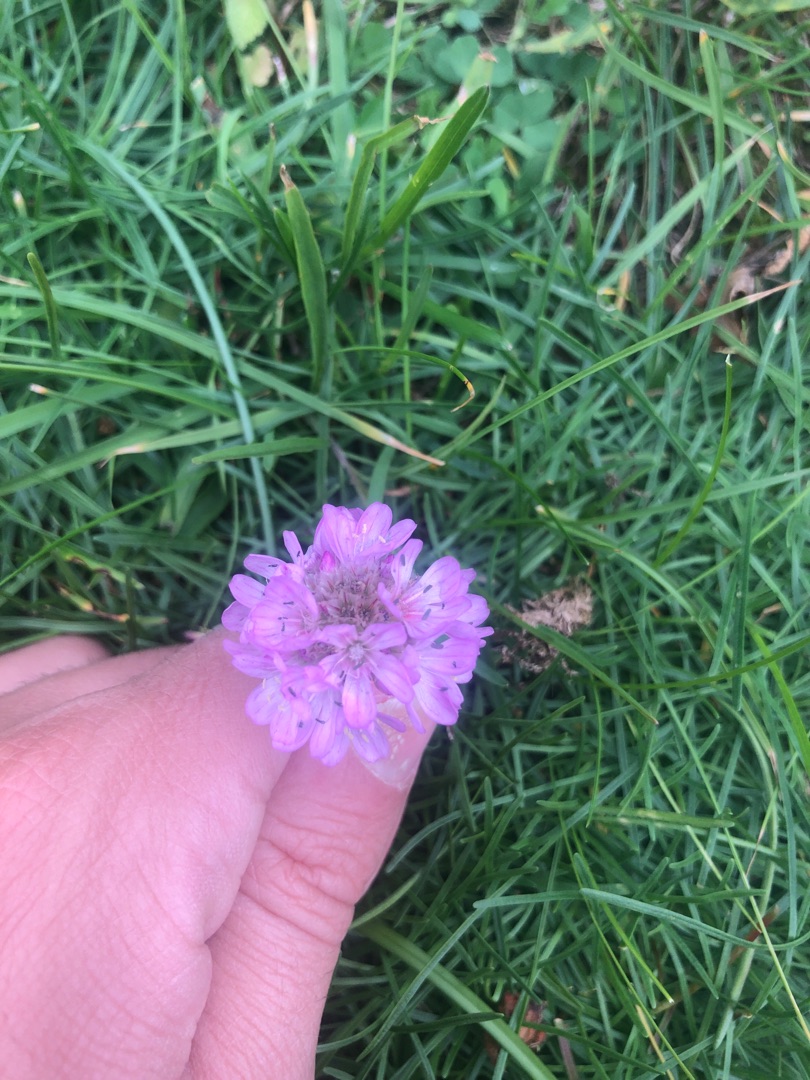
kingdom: Plantae
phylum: Tracheophyta
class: Magnoliopsida
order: Caryophyllales
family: Plumbaginaceae
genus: Armeria
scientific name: Armeria maritima
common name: Engelskgræs
